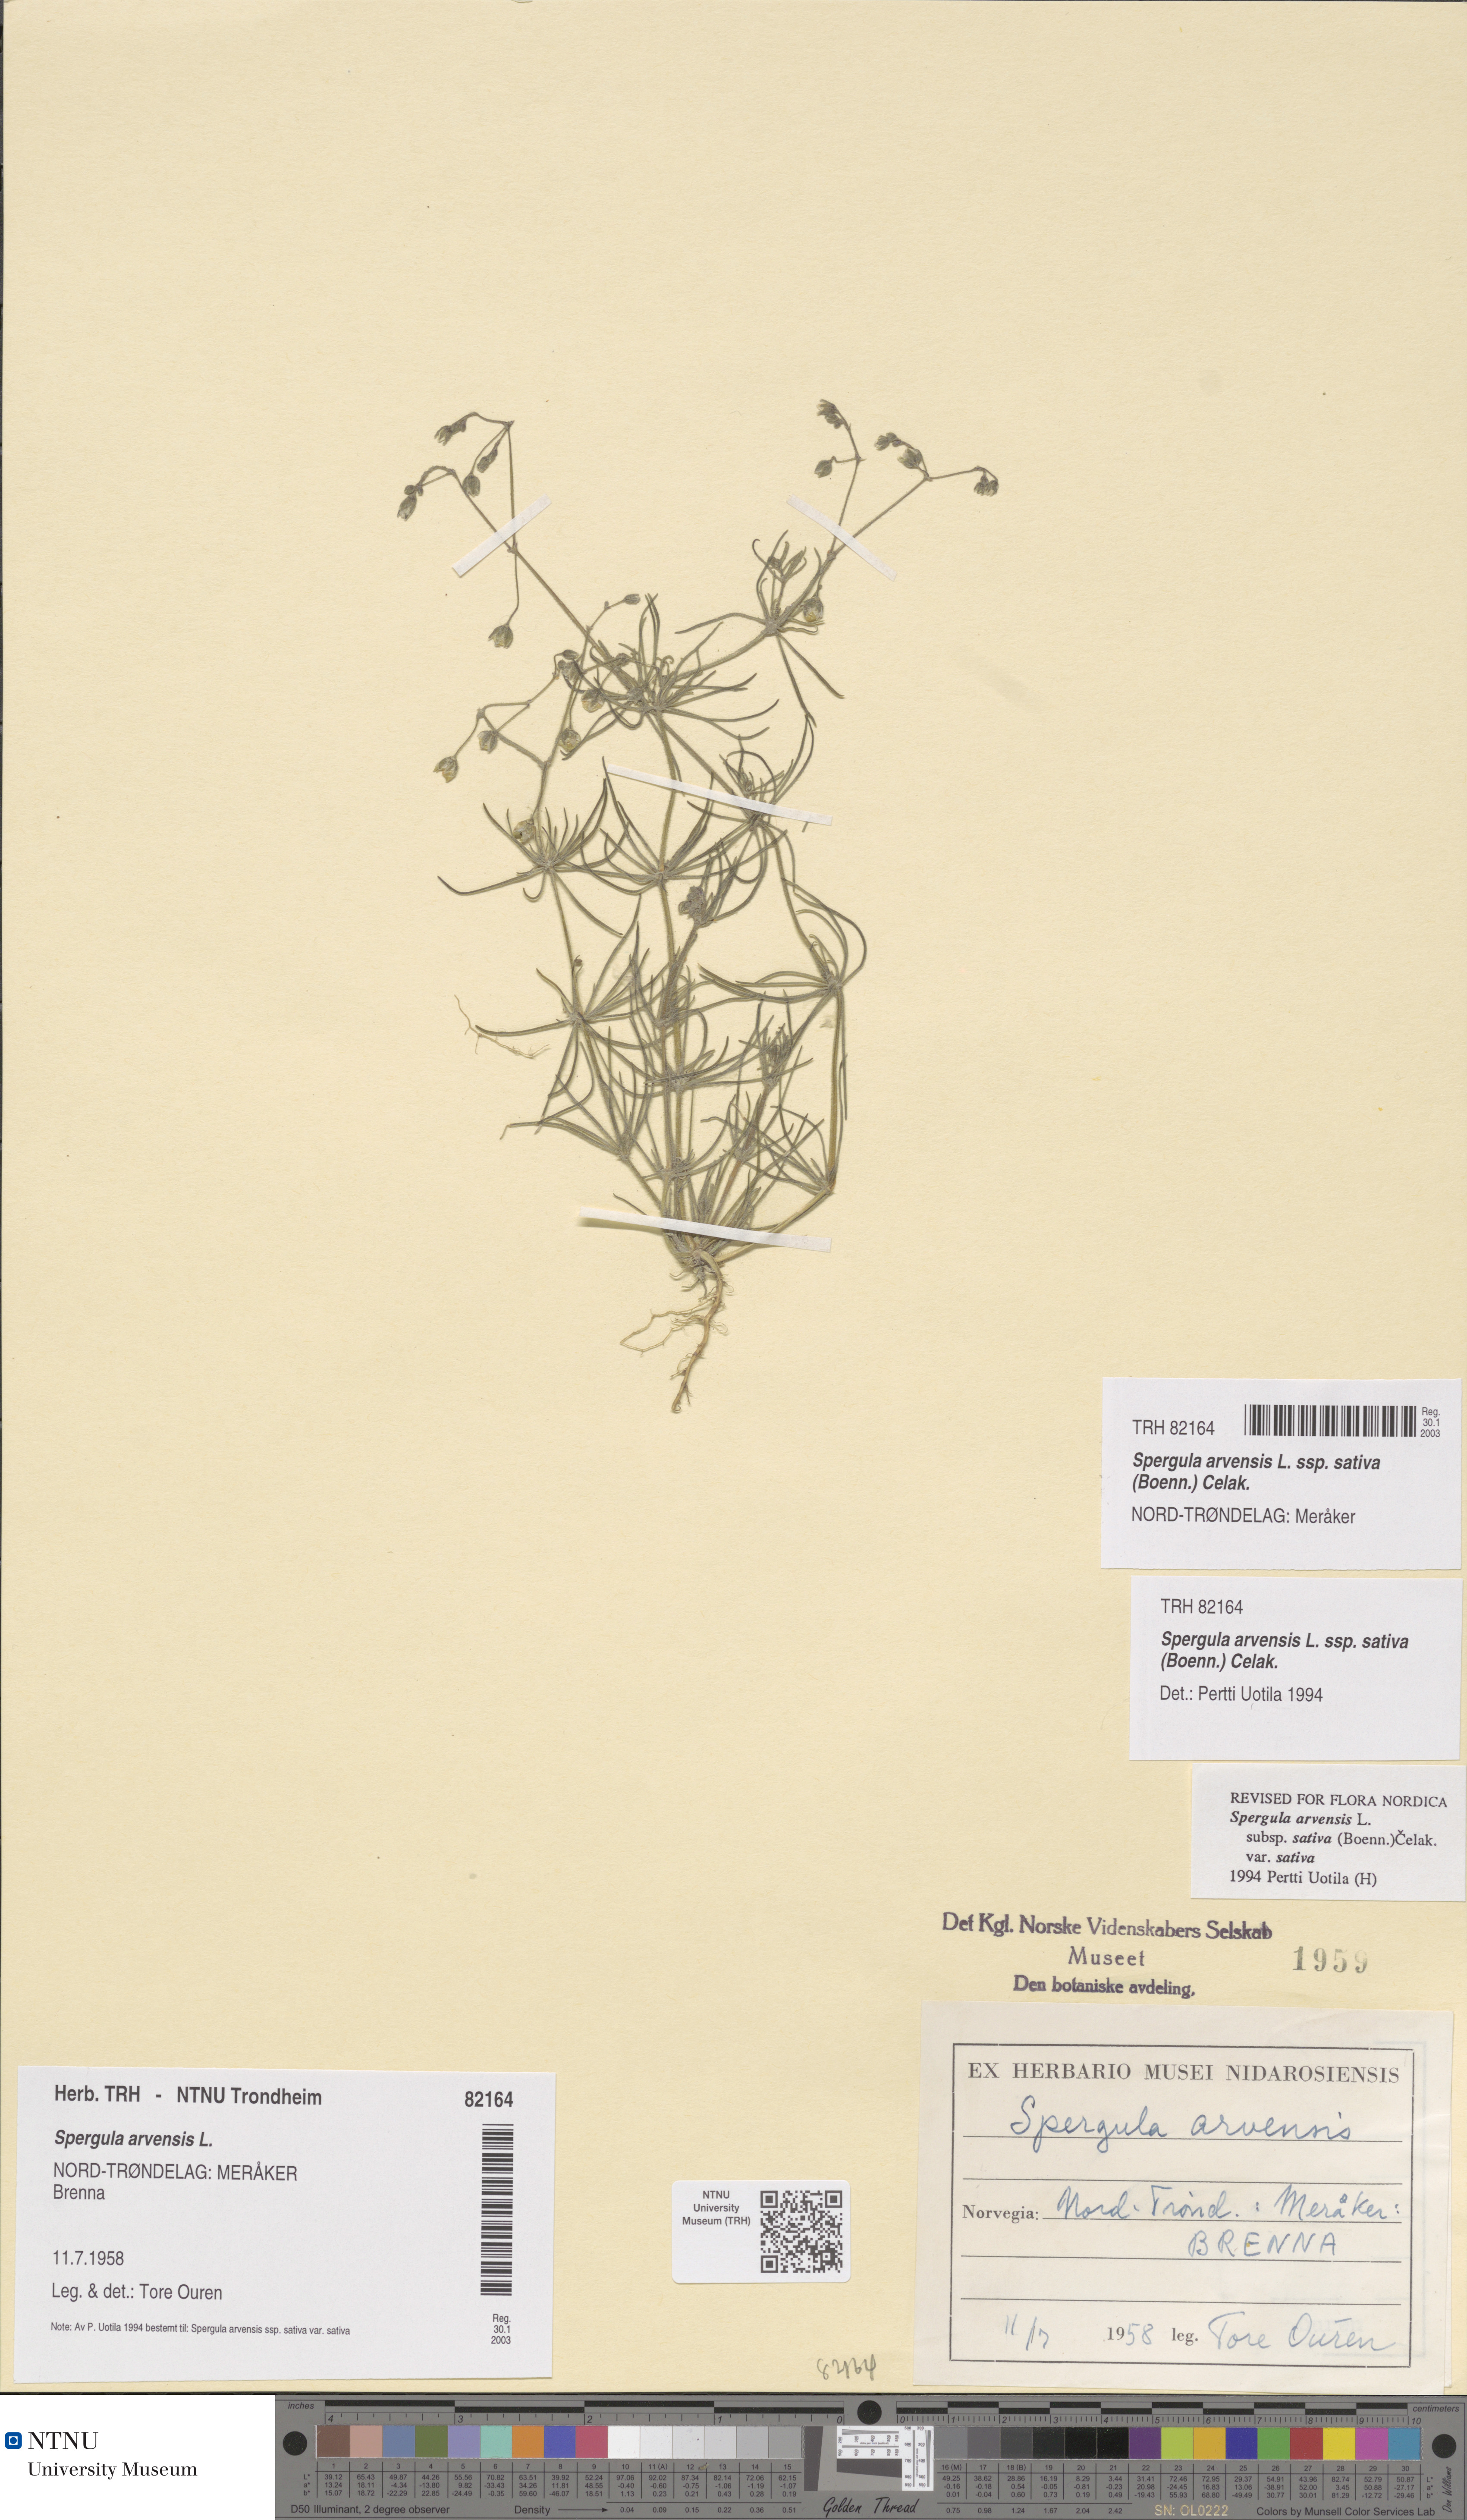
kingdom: Plantae
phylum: Tracheophyta
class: Magnoliopsida
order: Caryophyllales
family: Caryophyllaceae
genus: Spergula
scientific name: Spergula arvensis
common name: Corn spurrey
